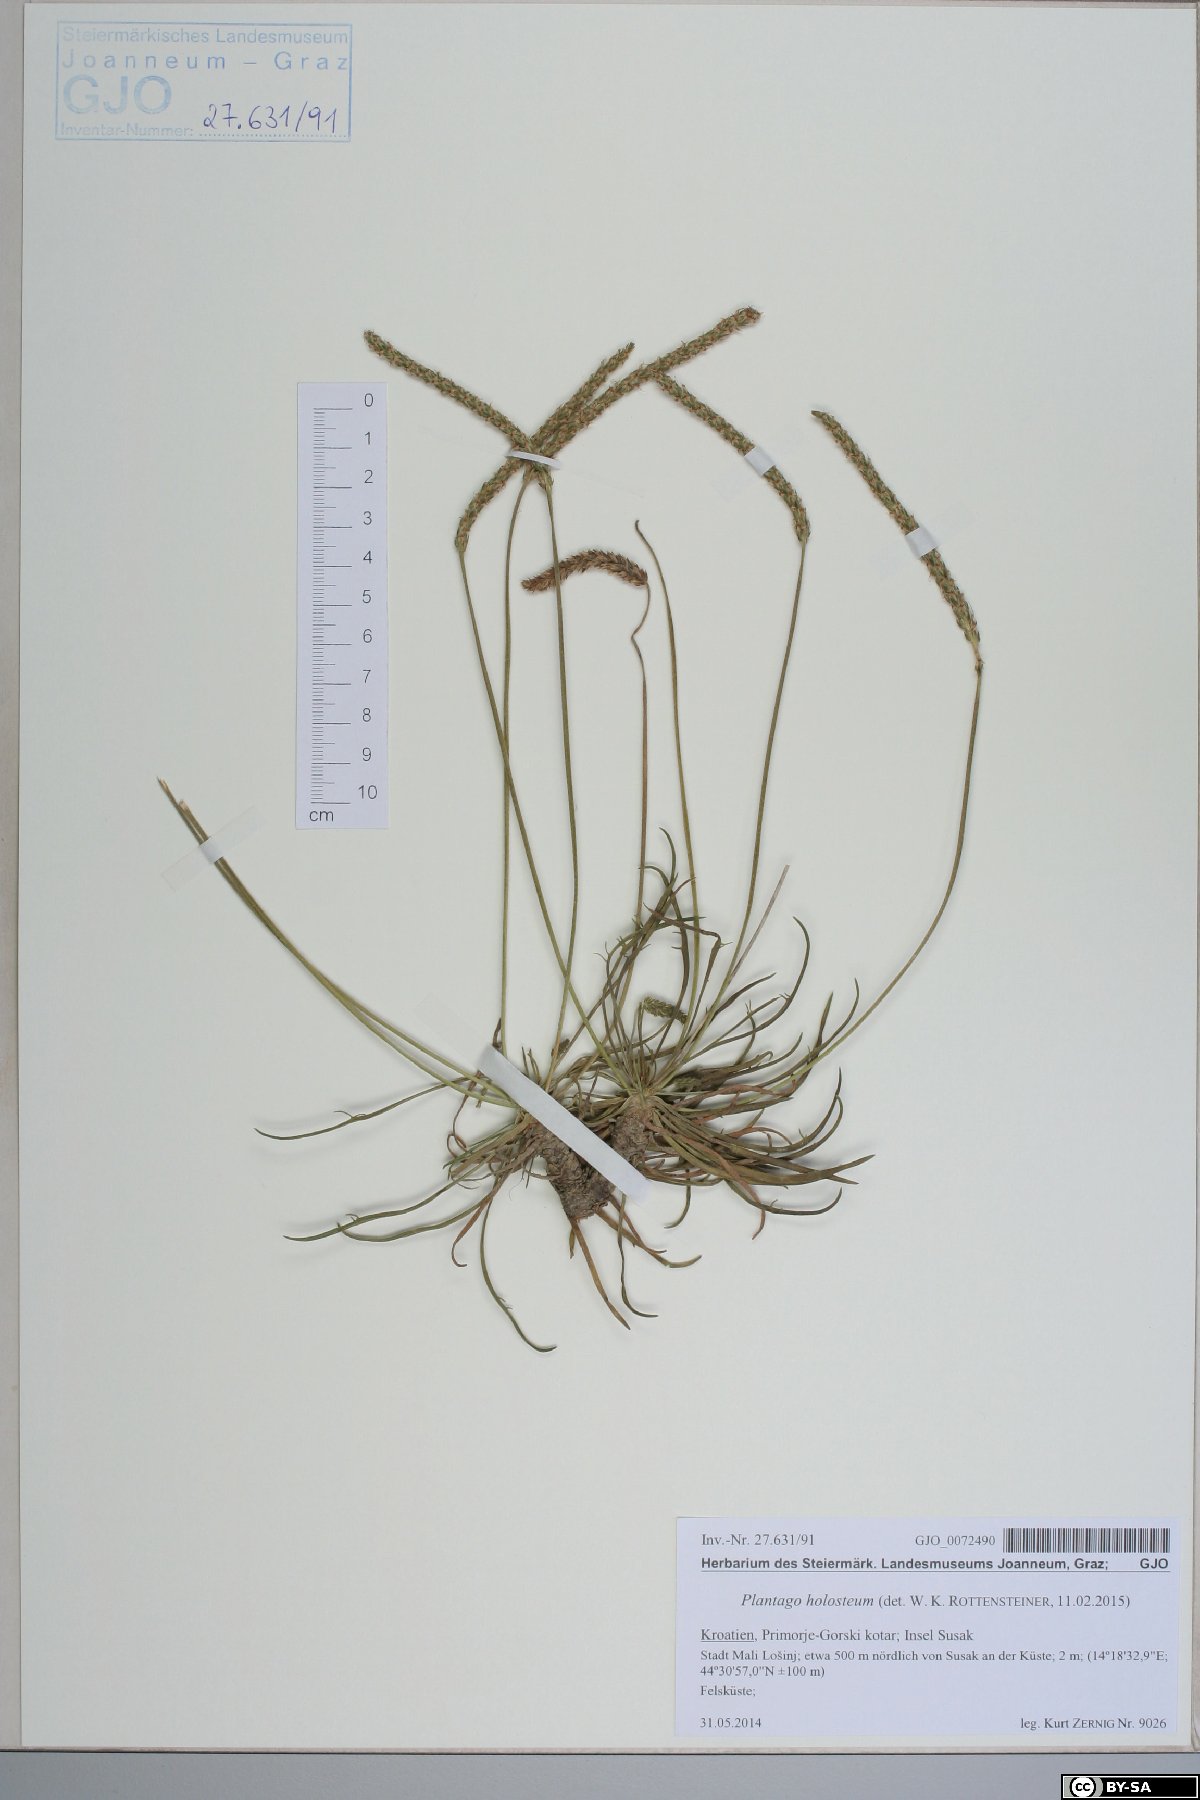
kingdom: Plantae
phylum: Tracheophyta
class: Magnoliopsida
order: Lamiales
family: Plantaginaceae
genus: Plantago
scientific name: Plantago subulata
